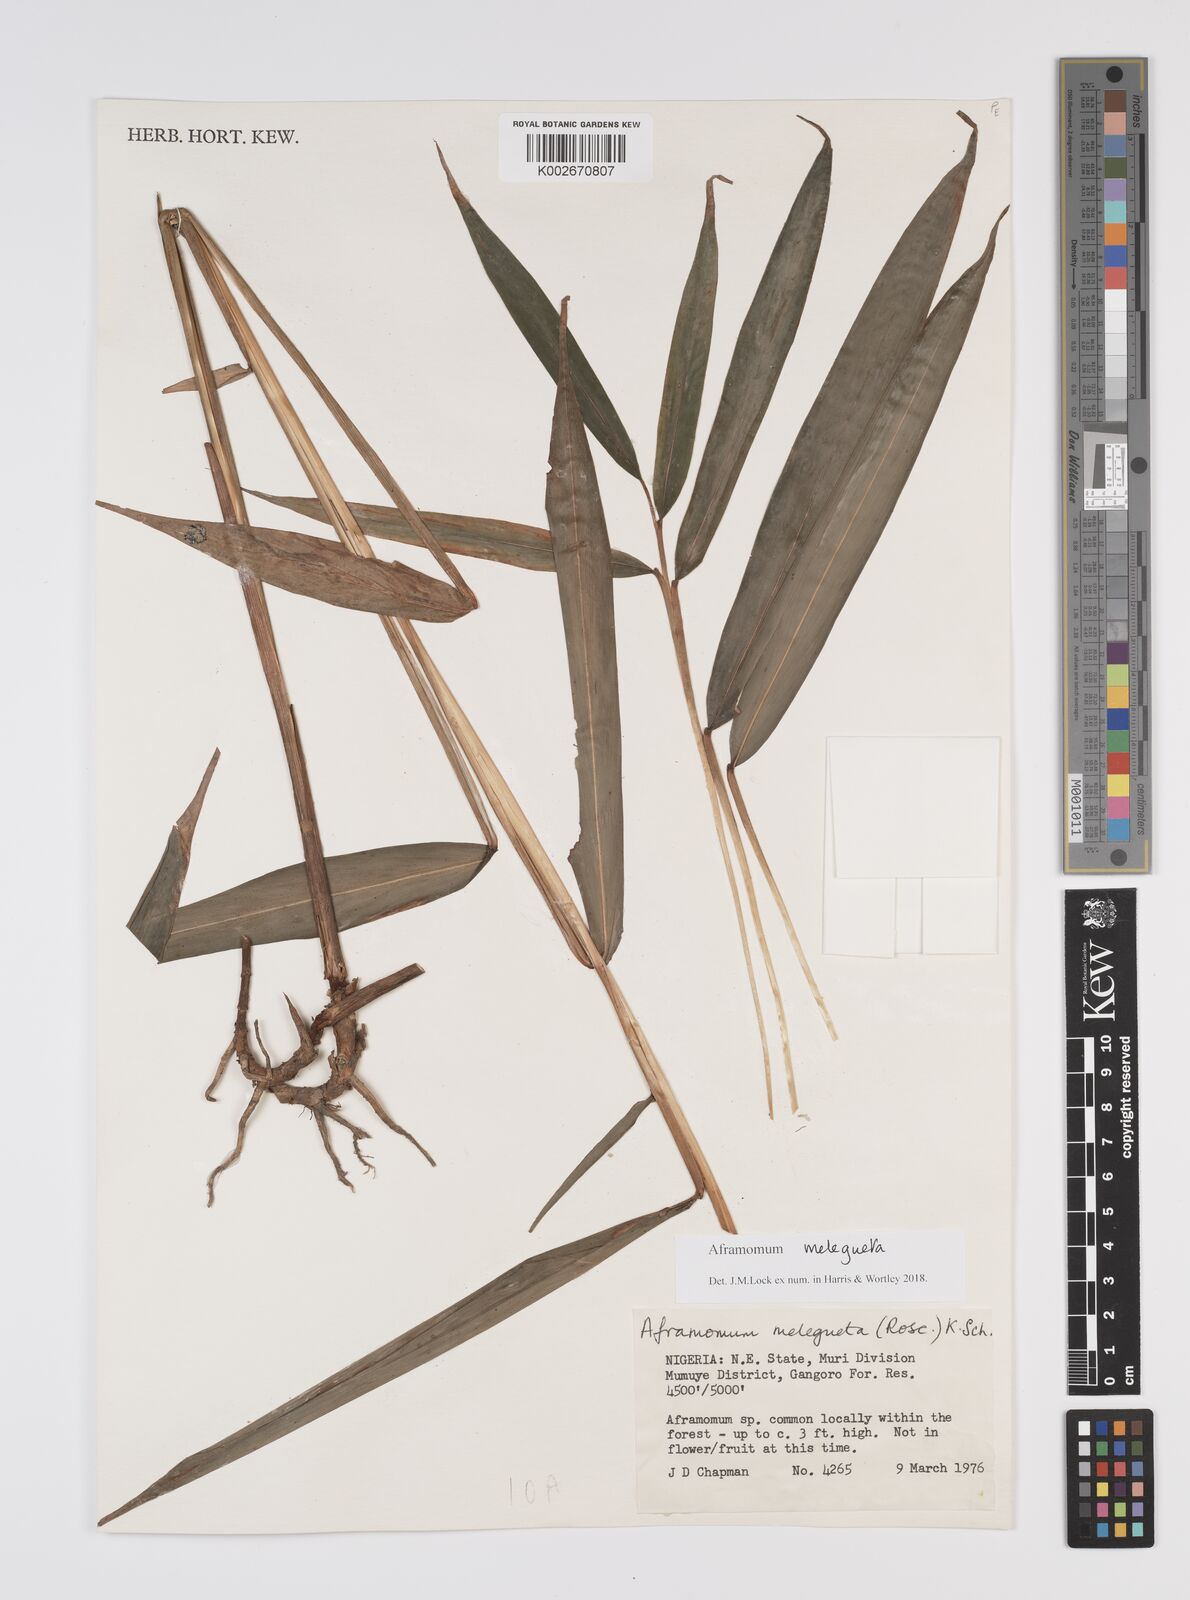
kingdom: Plantae
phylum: Tracheophyta
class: Liliopsida
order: Zingiberales
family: Zingiberaceae
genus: Aframomum
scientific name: Aframomum melegueta
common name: Grains of paradise
